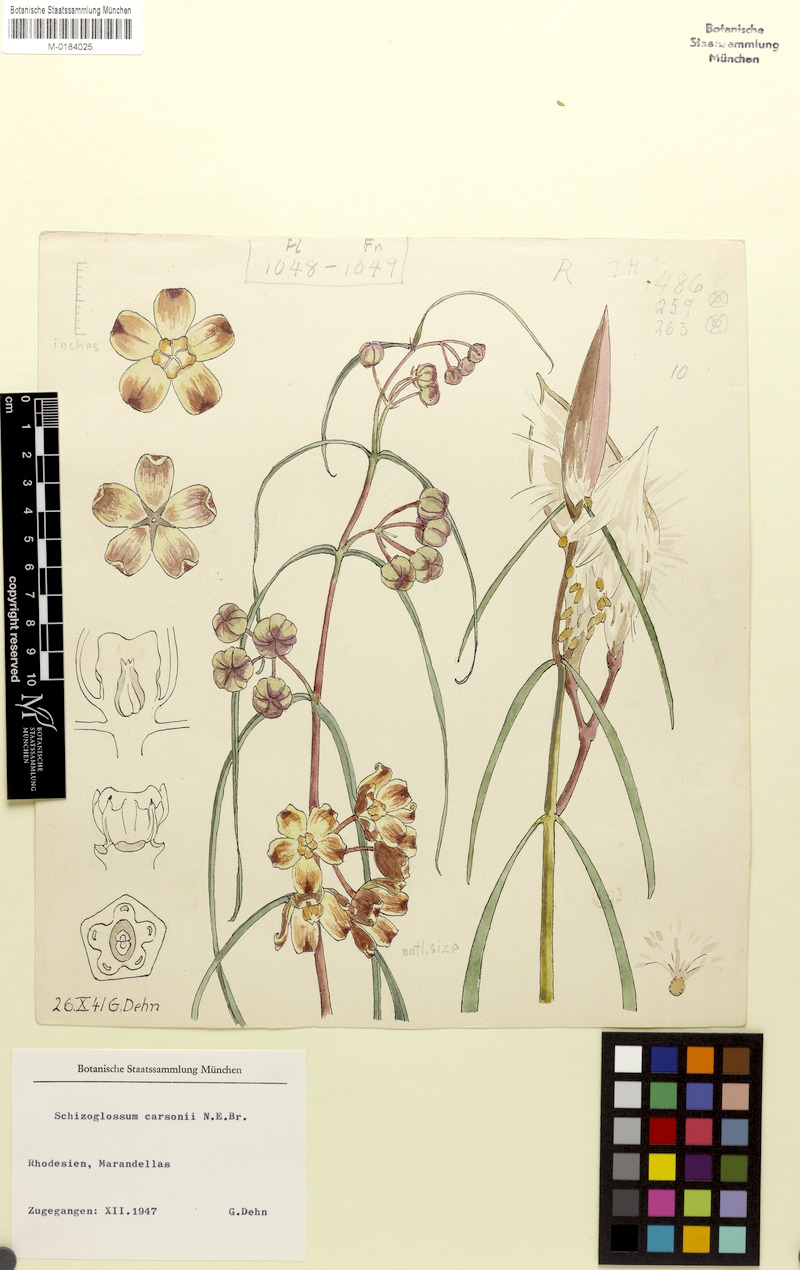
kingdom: Plantae
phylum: Tracheophyta
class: Magnoliopsida
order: Gentianales
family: Apocynaceae
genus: Glossostelma
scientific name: Glossostelma carsonii
